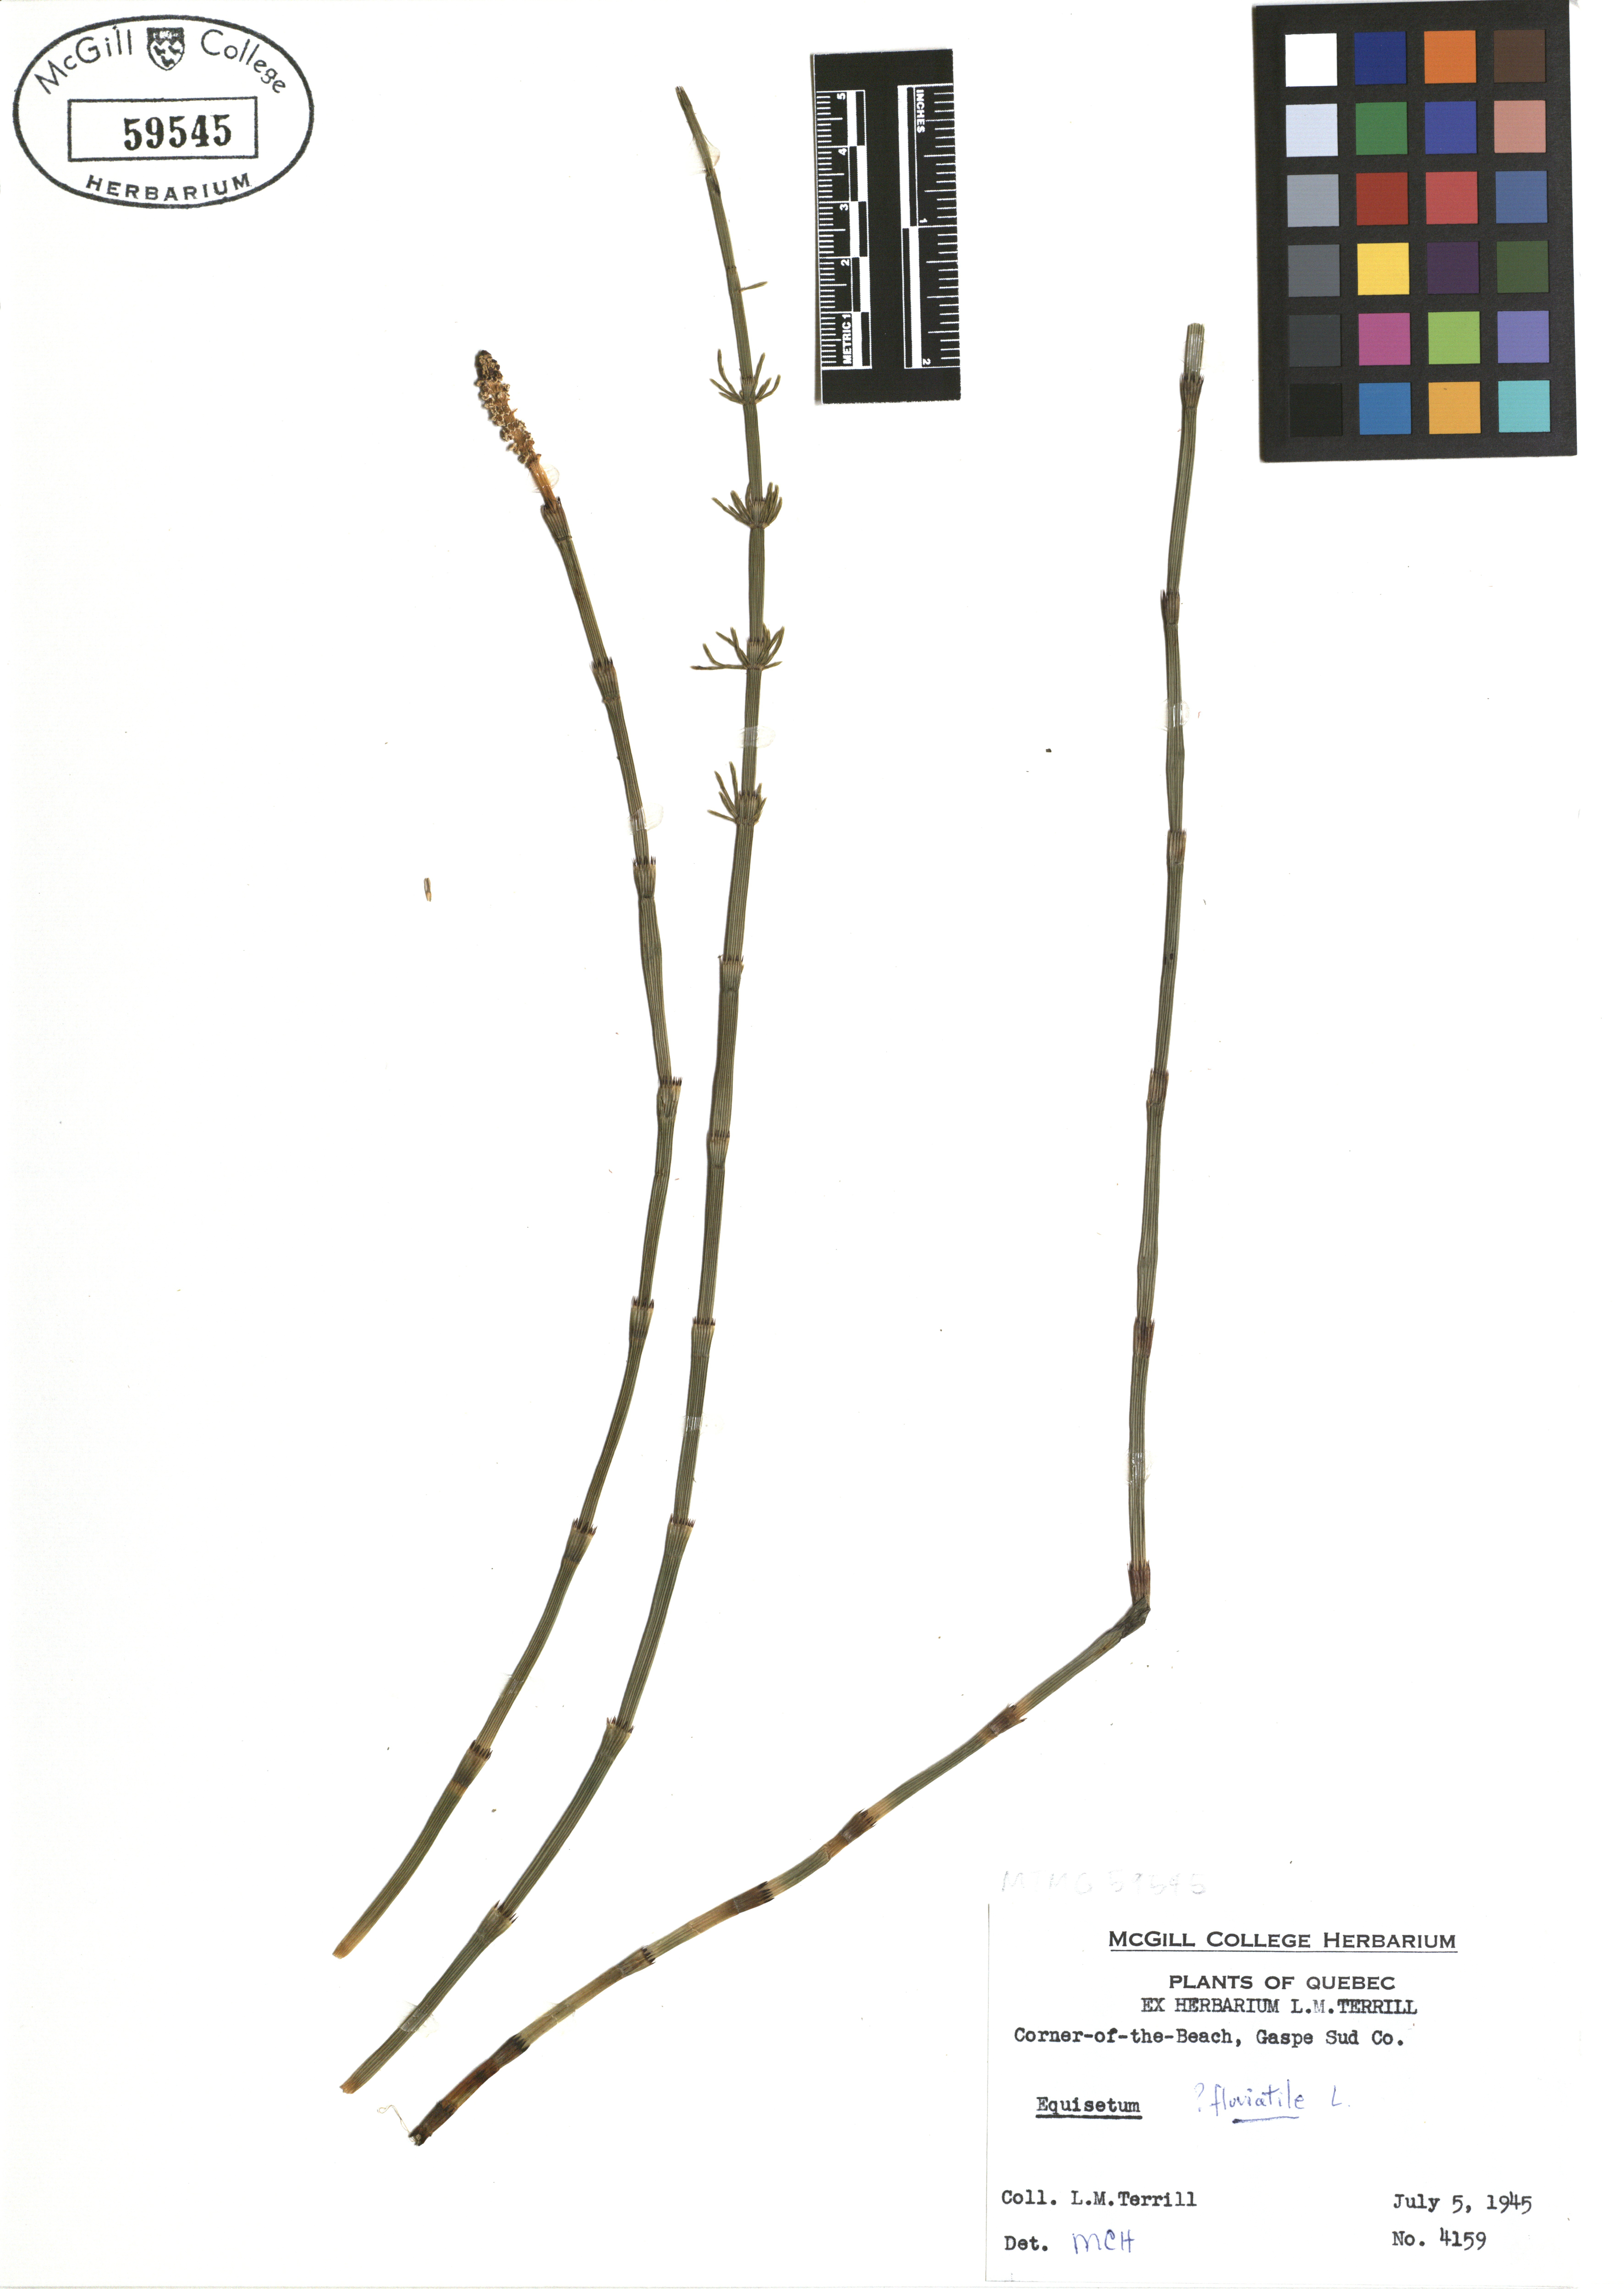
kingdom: Plantae
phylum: Tracheophyta
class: Polypodiopsida
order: Equisetales
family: Equisetaceae
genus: Equisetum
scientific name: Equisetum fluviatile
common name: Water horsetail
